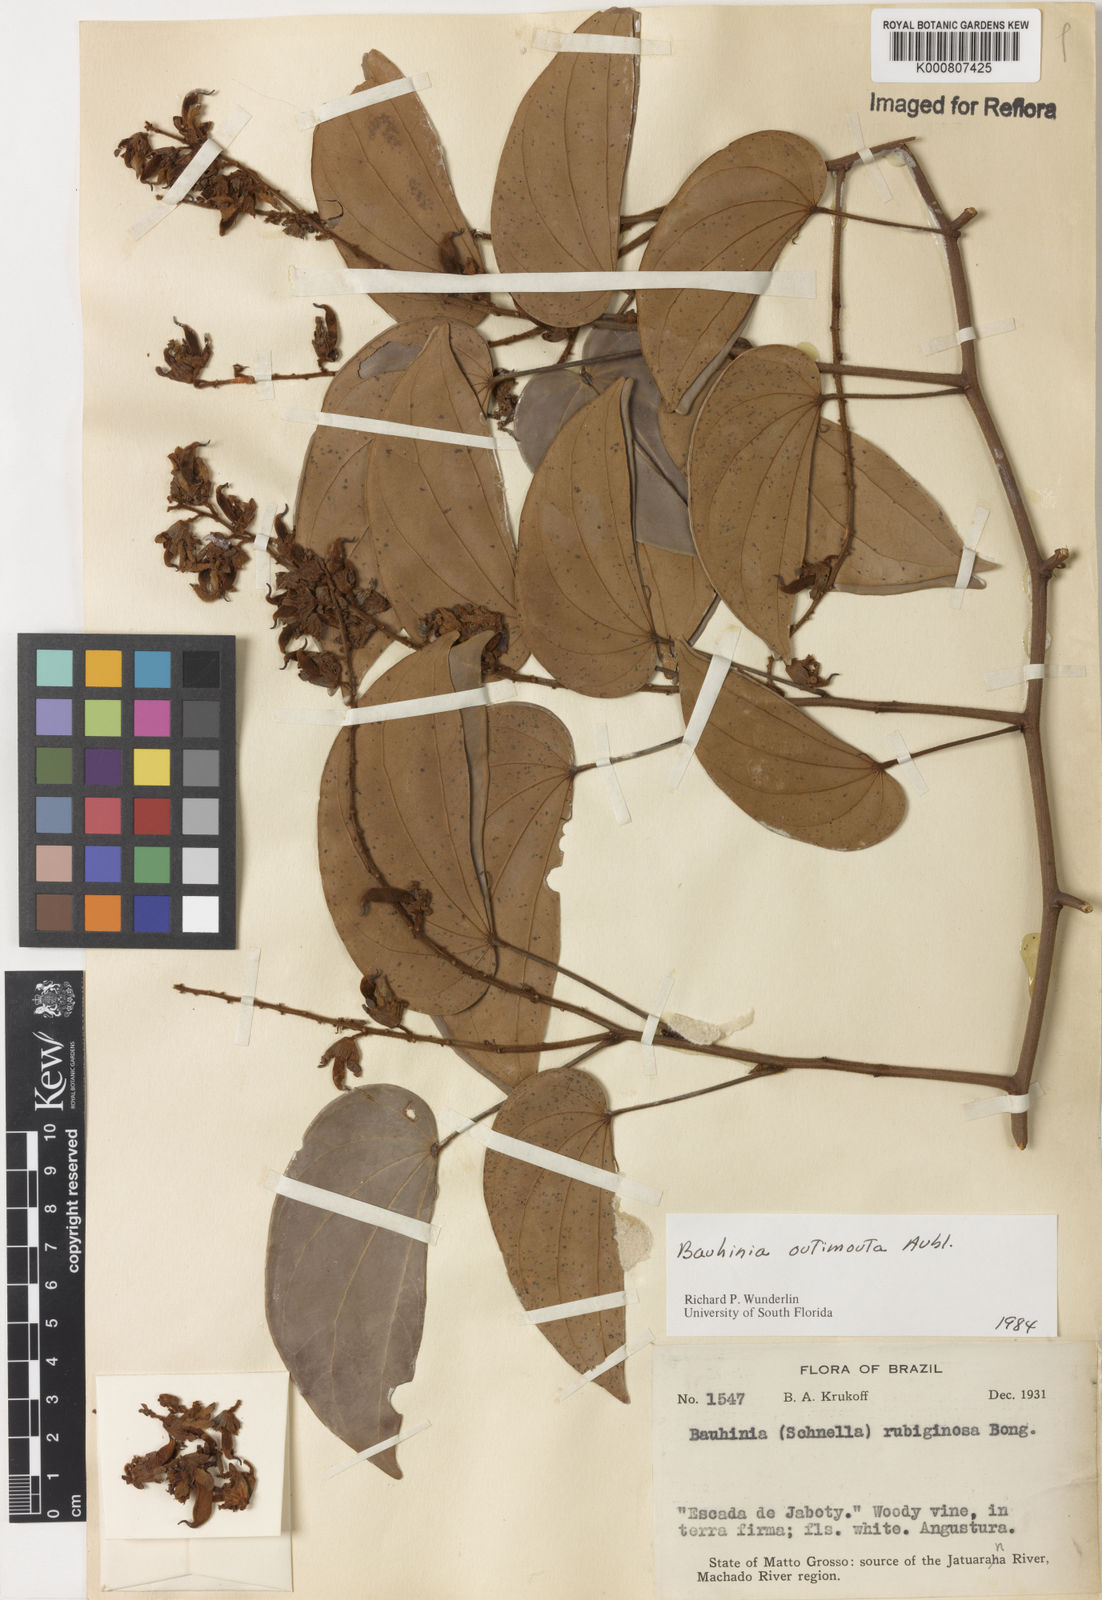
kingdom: Plantae
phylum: Tracheophyta
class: Magnoliopsida
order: Fabales
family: Fabaceae
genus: Schnella
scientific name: Schnella outimouta
